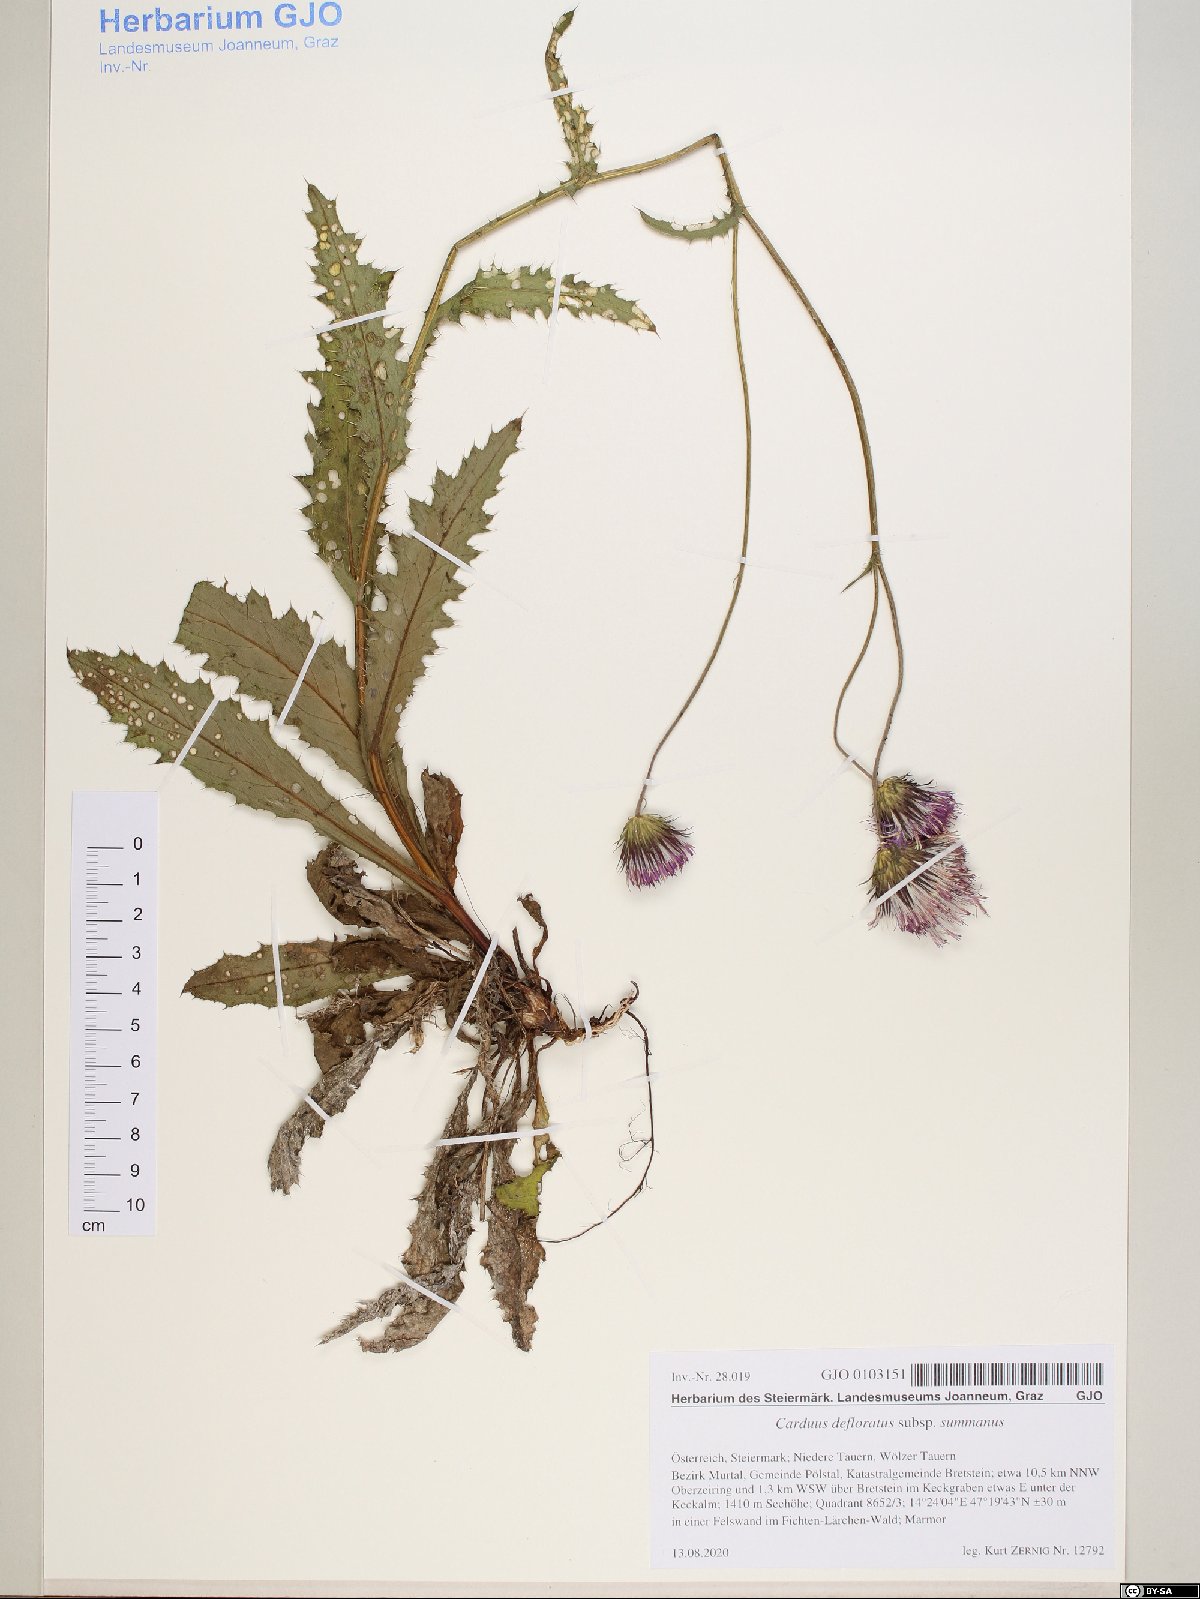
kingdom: Plantae
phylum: Tracheophyta
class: Magnoliopsida
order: Asterales
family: Asteraceae
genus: Carduus
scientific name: Carduus defloratus
